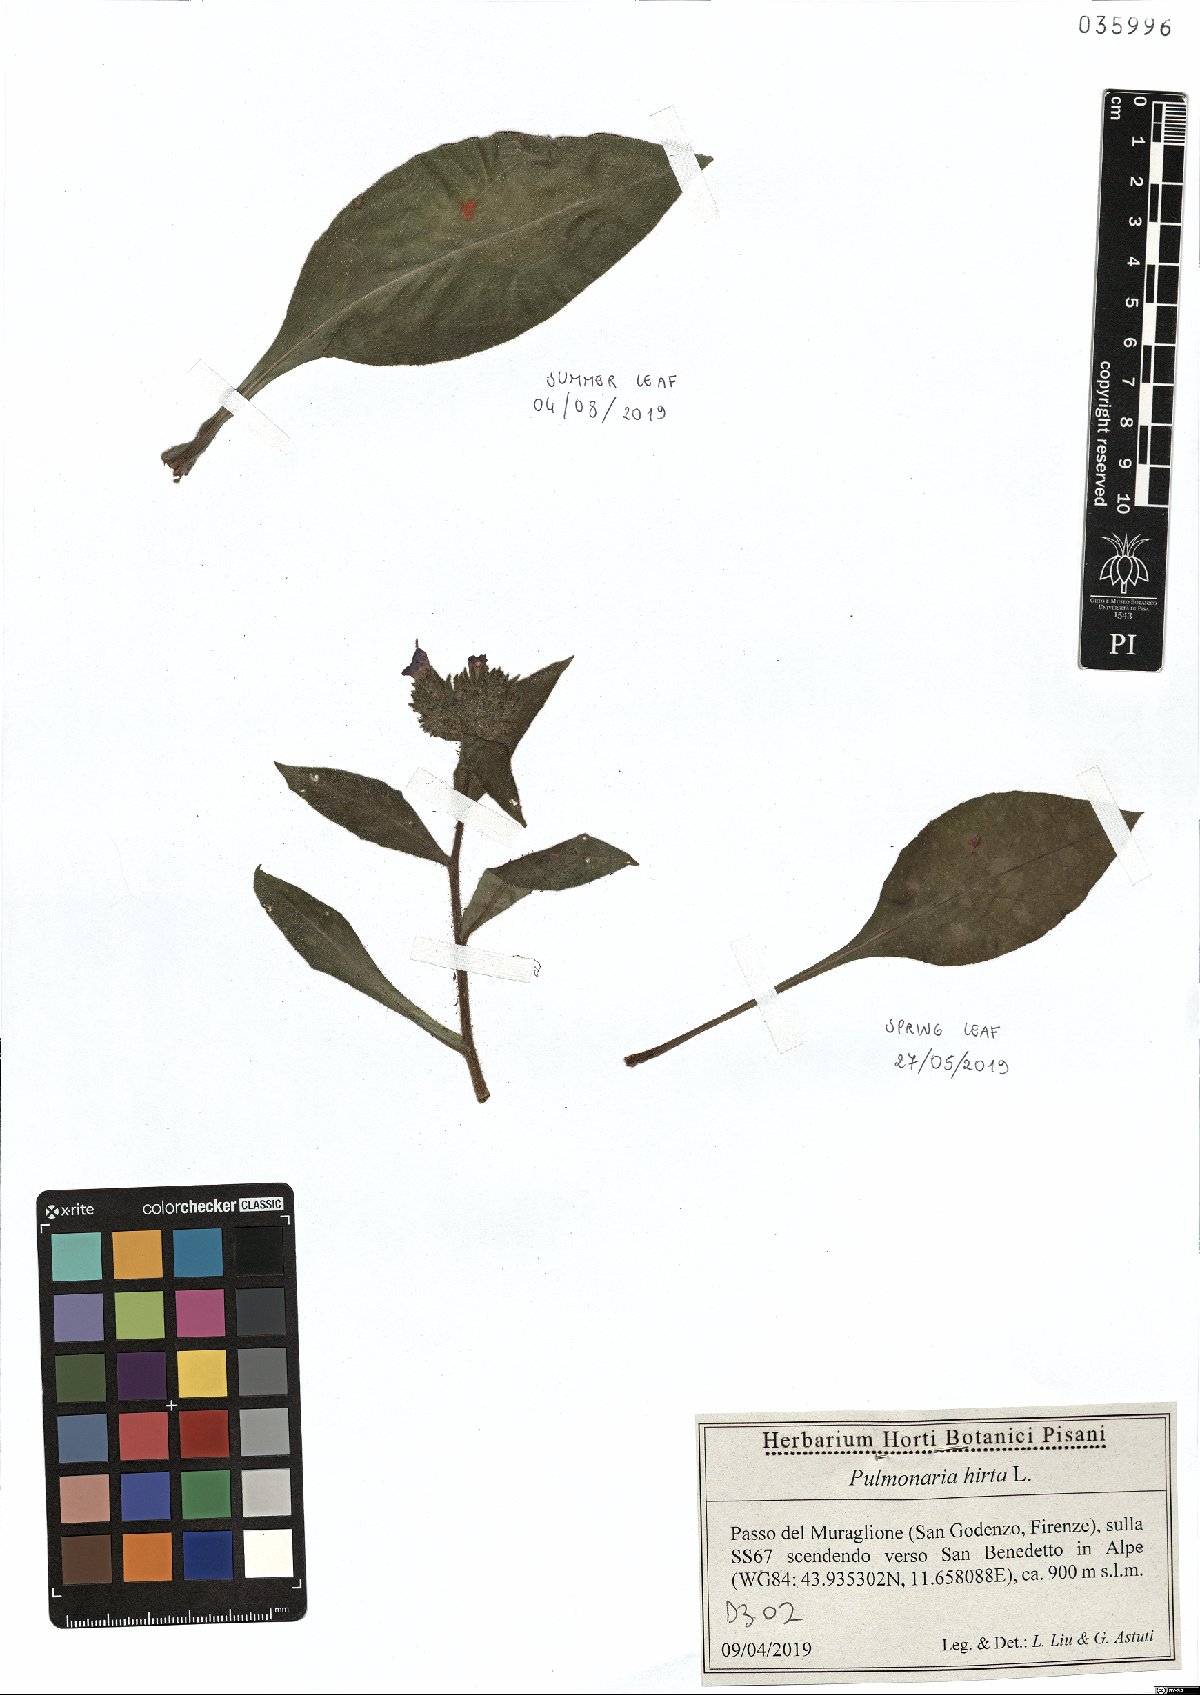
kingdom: Plantae
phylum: Tracheophyta
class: Magnoliopsida
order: Boraginales
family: Boraginaceae
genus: Pulmonaria
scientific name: Pulmonaria hirta
